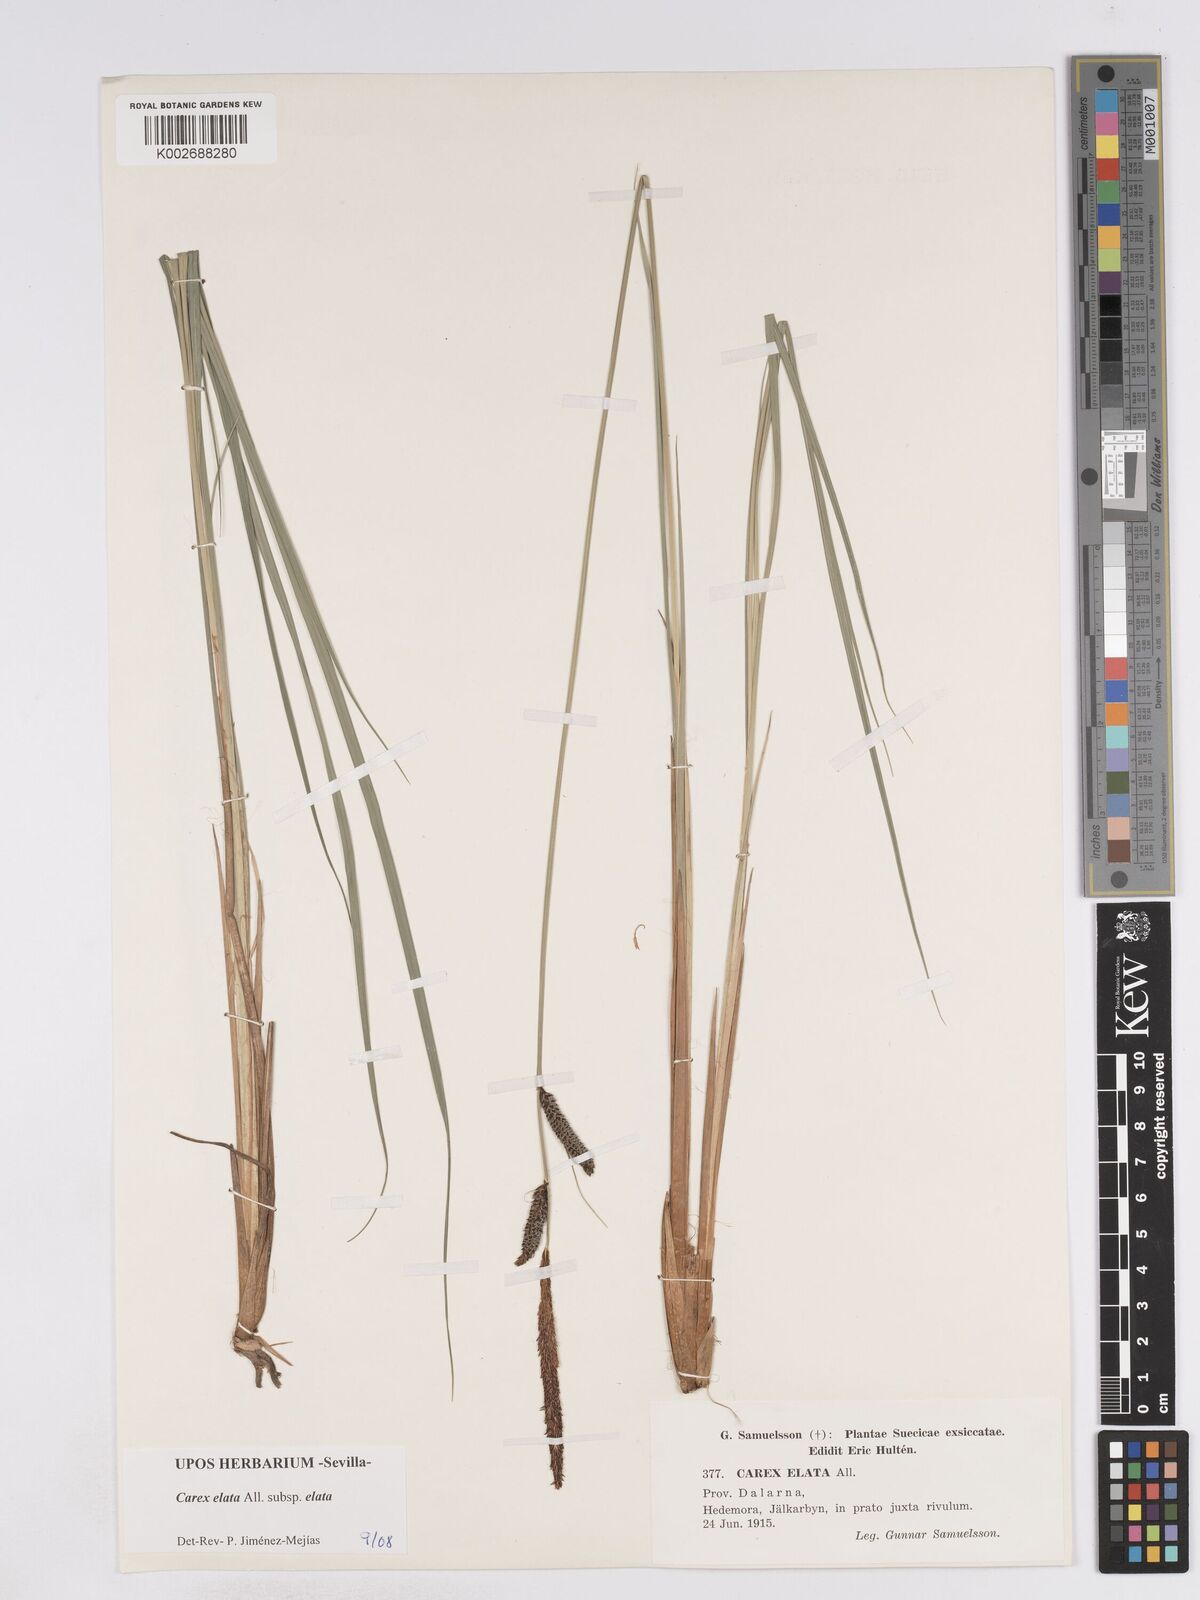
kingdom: Plantae
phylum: Tracheophyta
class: Liliopsida
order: Poales
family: Cyperaceae
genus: Carex
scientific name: Carex elata
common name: Tufted sedge
